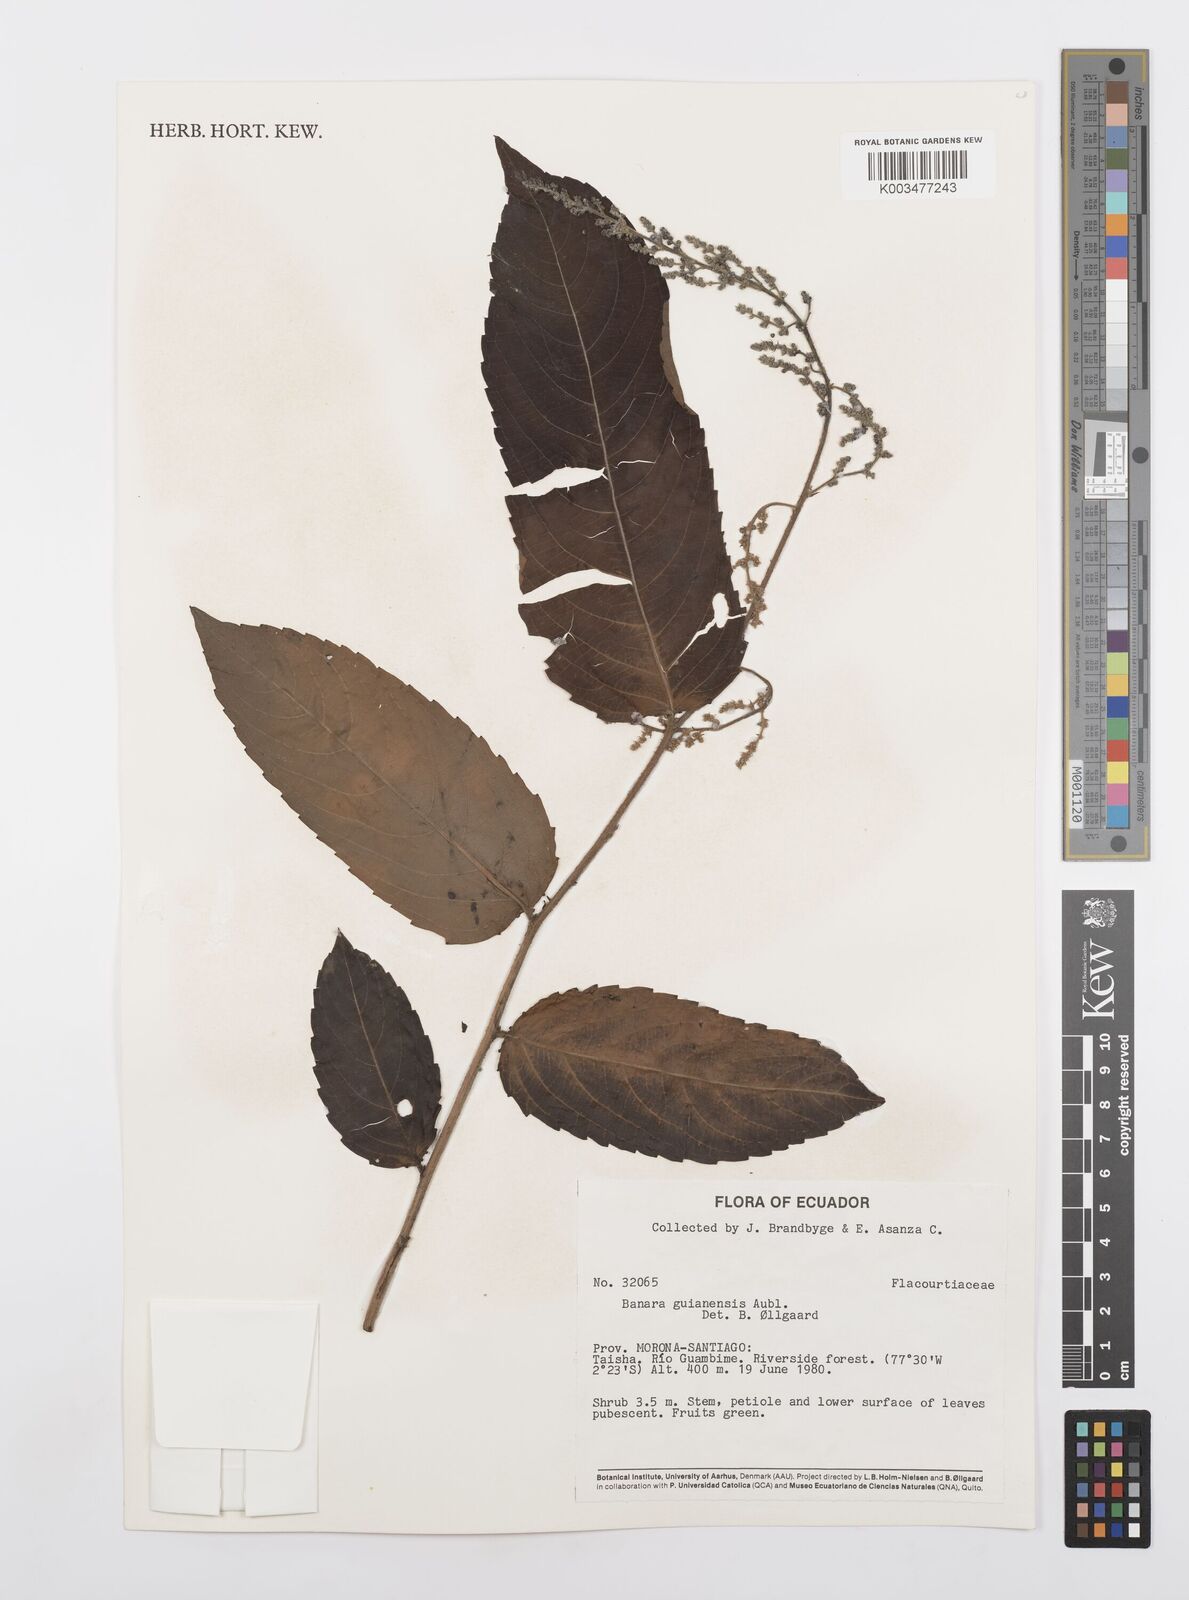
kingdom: Plantae
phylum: Tracheophyta
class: Magnoliopsida
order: Malpighiales
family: Salicaceae
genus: Banara
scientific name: Banara guianensis
